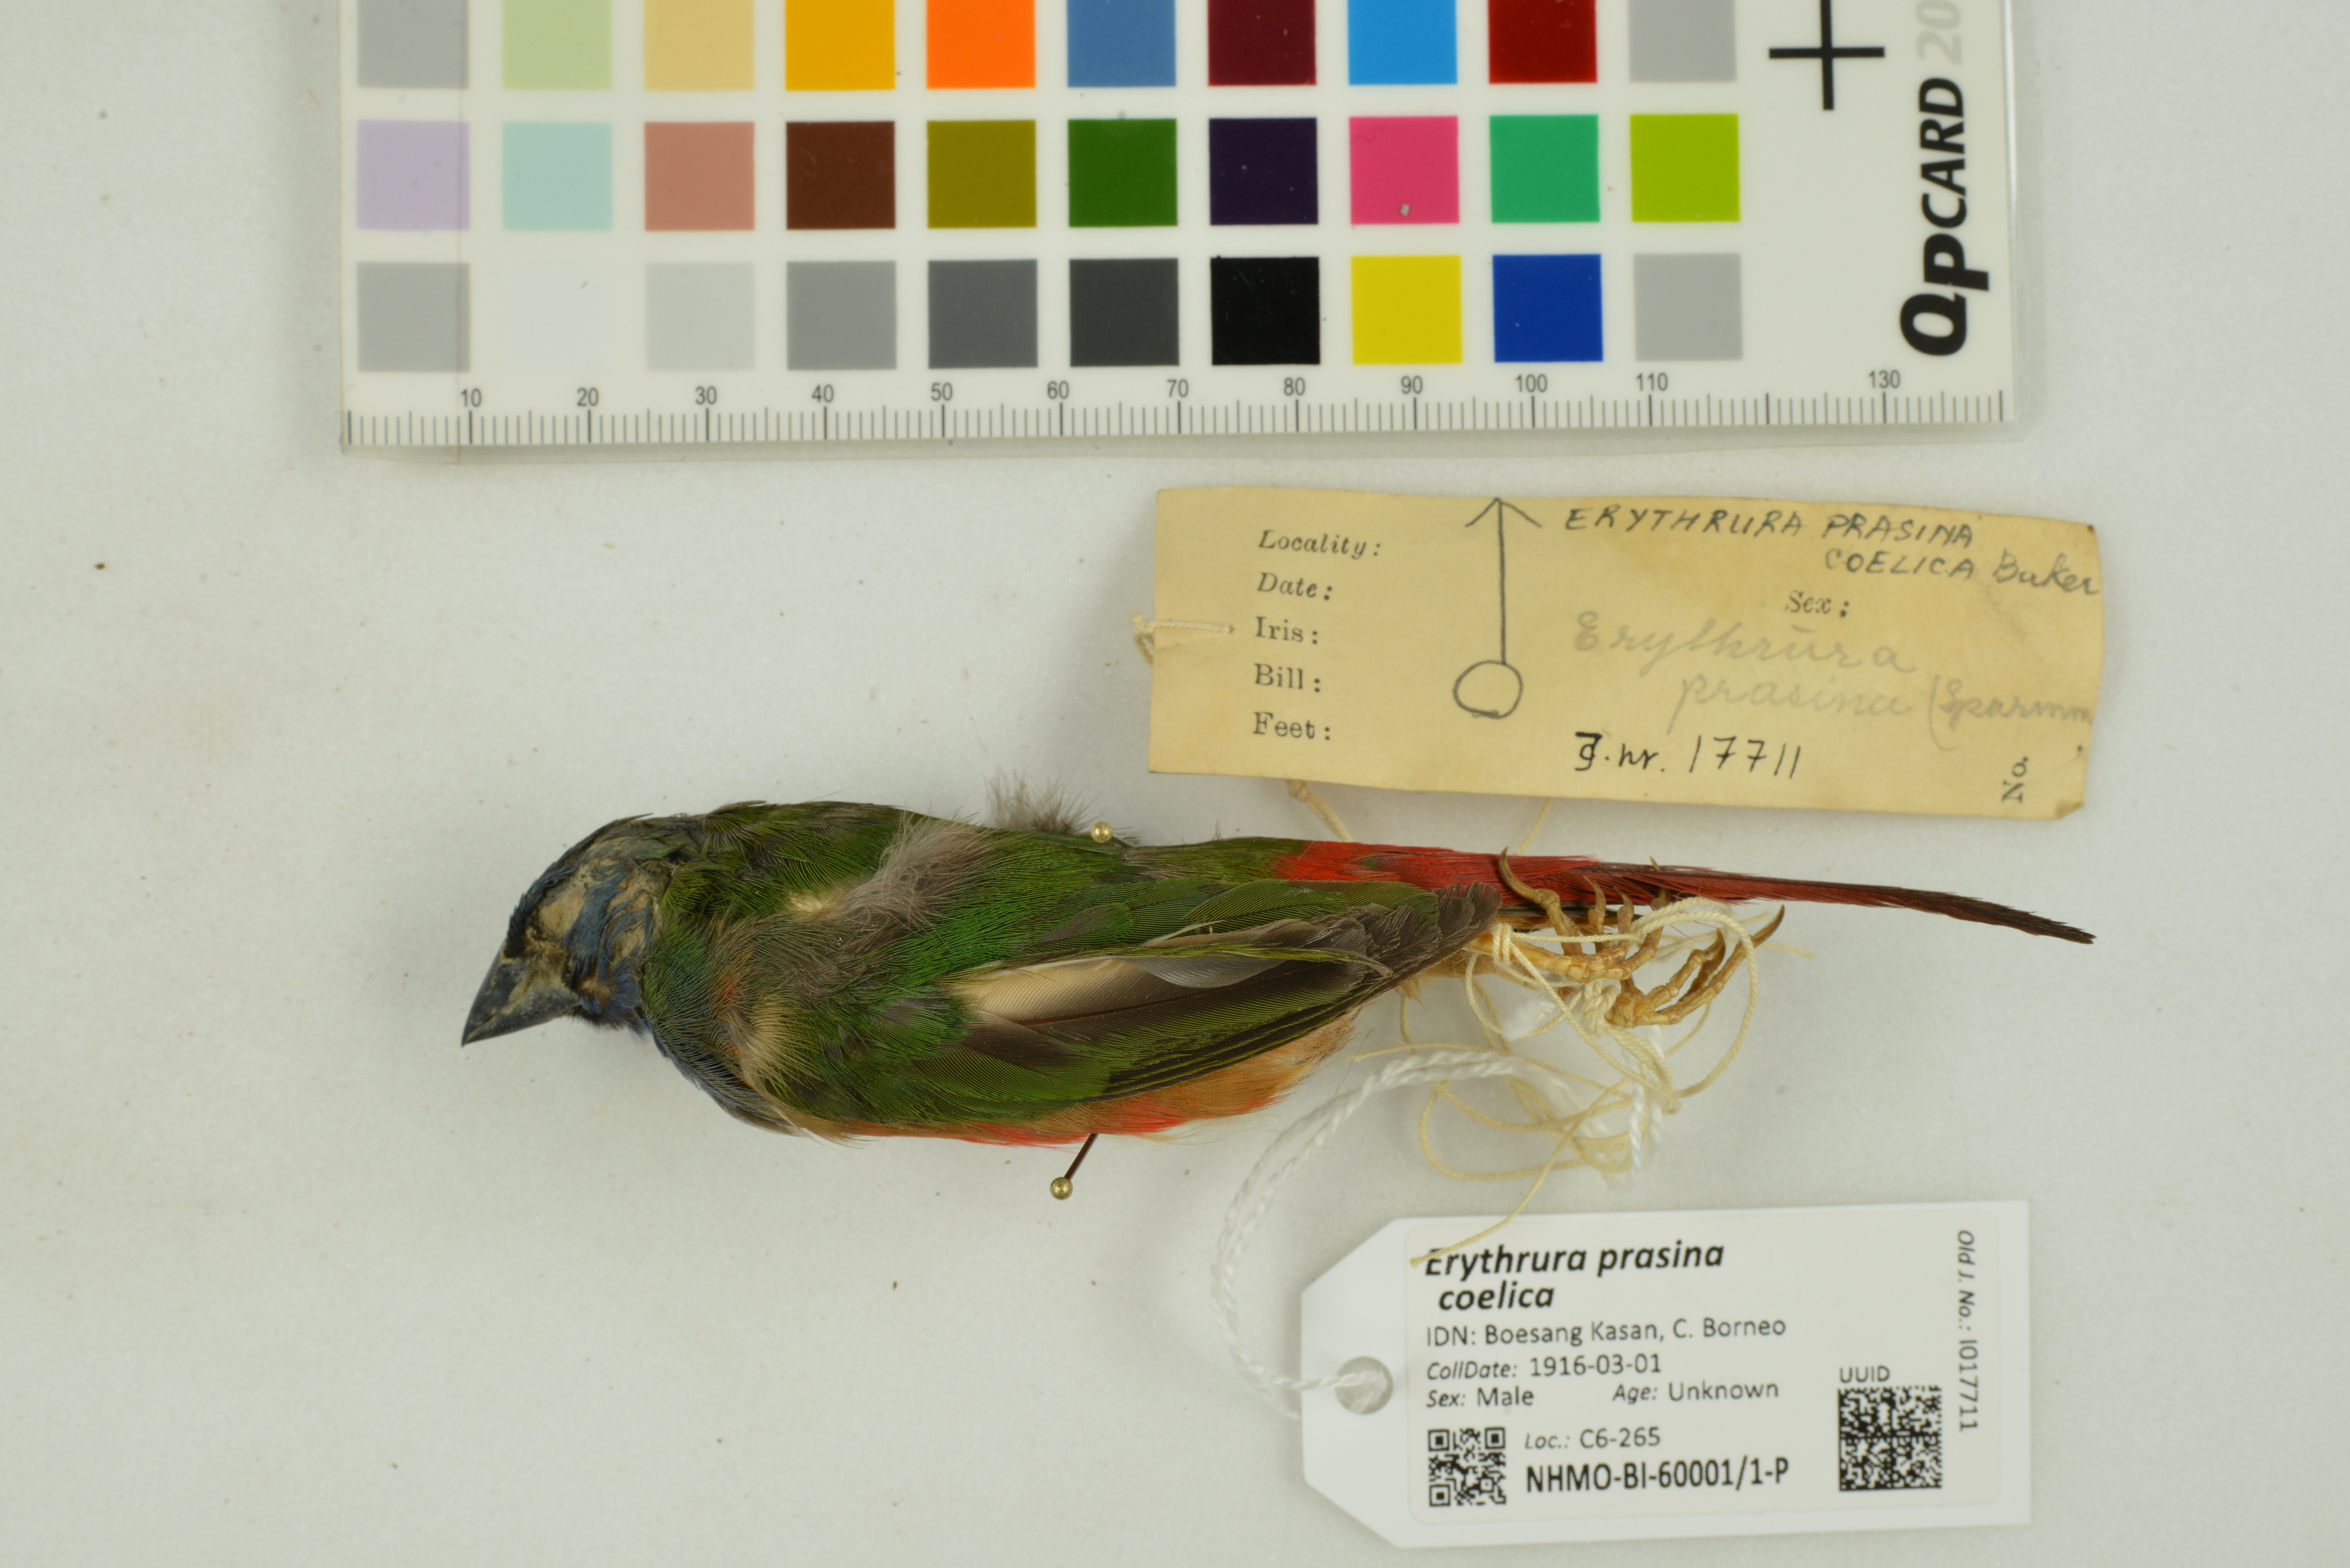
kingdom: Animalia
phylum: Chordata
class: Aves
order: Passeriformes
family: Estrildidae
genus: Erythrura
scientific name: Erythrura prasina
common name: Pin-tailed parrotfinch
